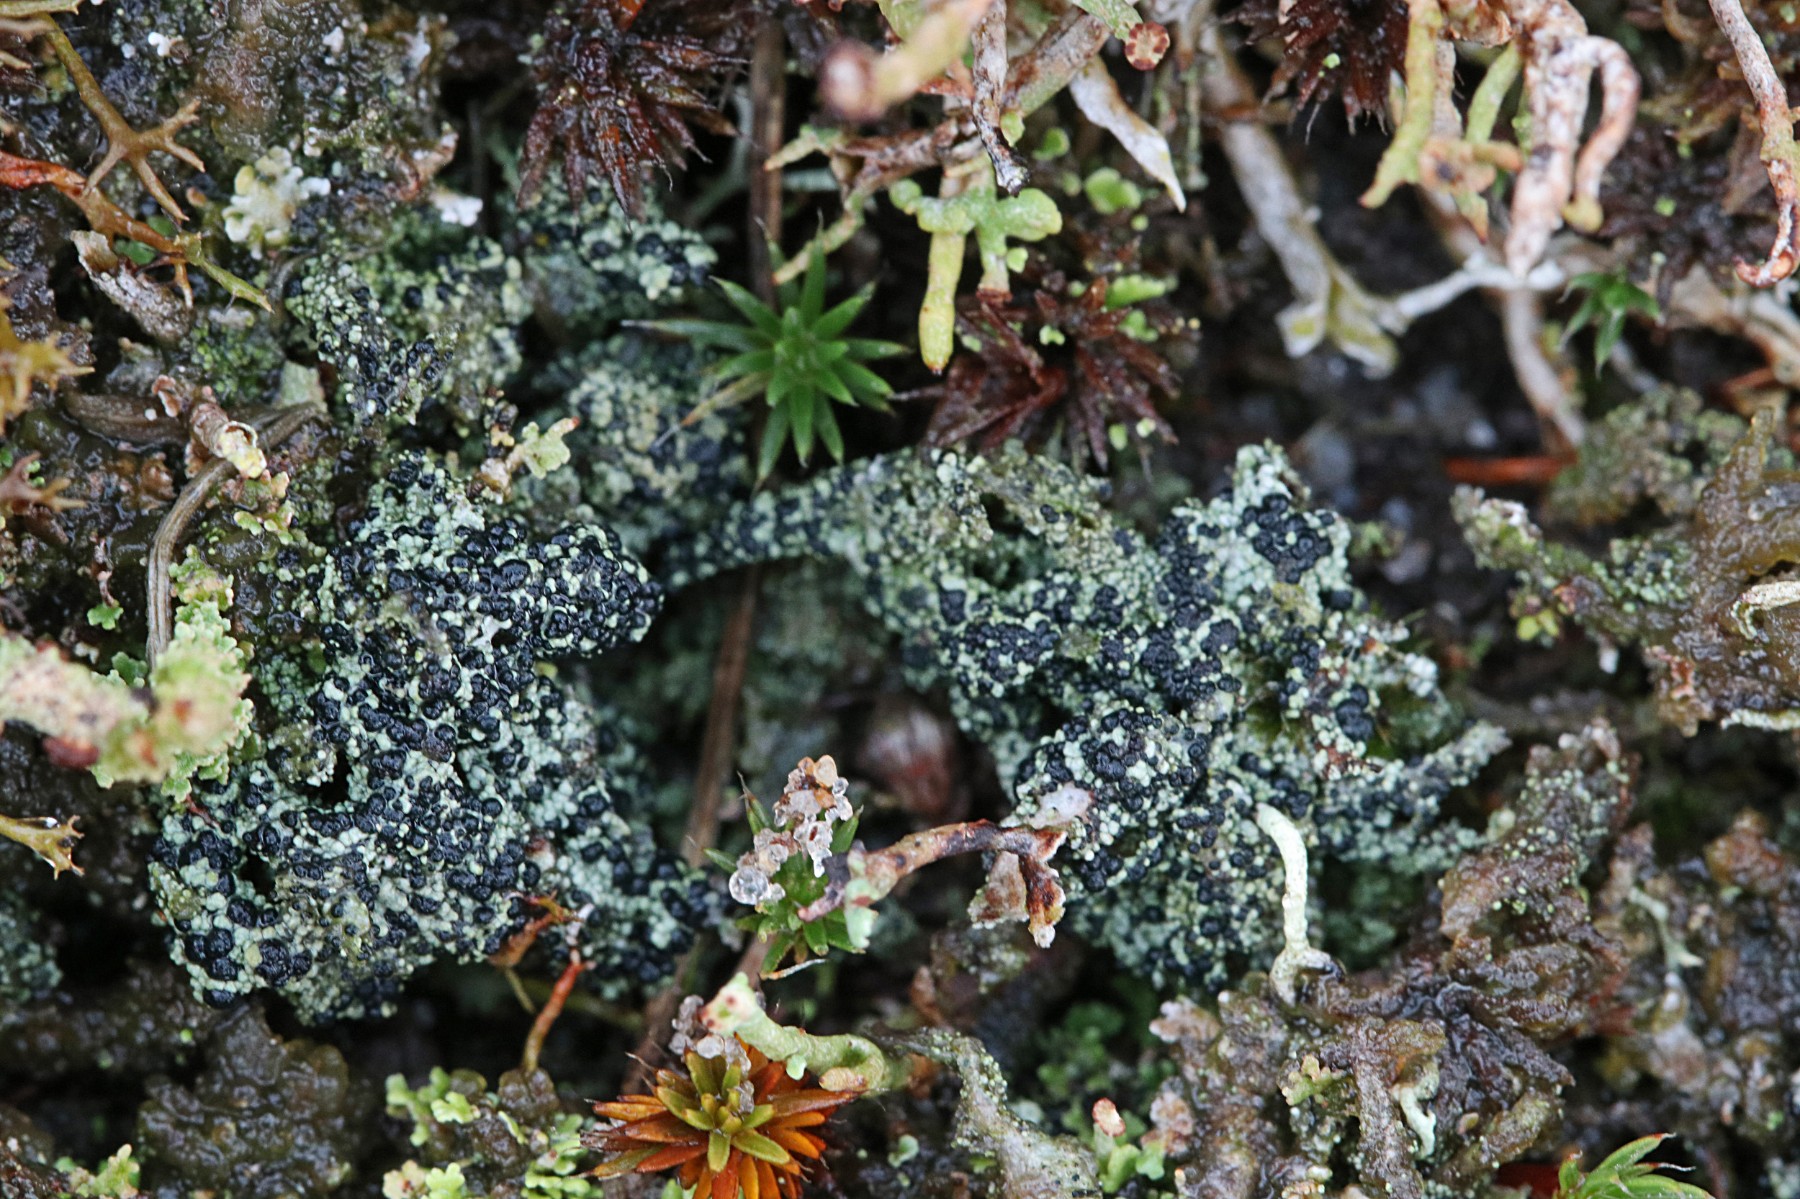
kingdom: Fungi
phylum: Ascomycota
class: Lecanoromycetes
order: Lecanorales
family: Byssolomataceae
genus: Micarea
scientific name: Micarea lignaria
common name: tørve-knaplav
